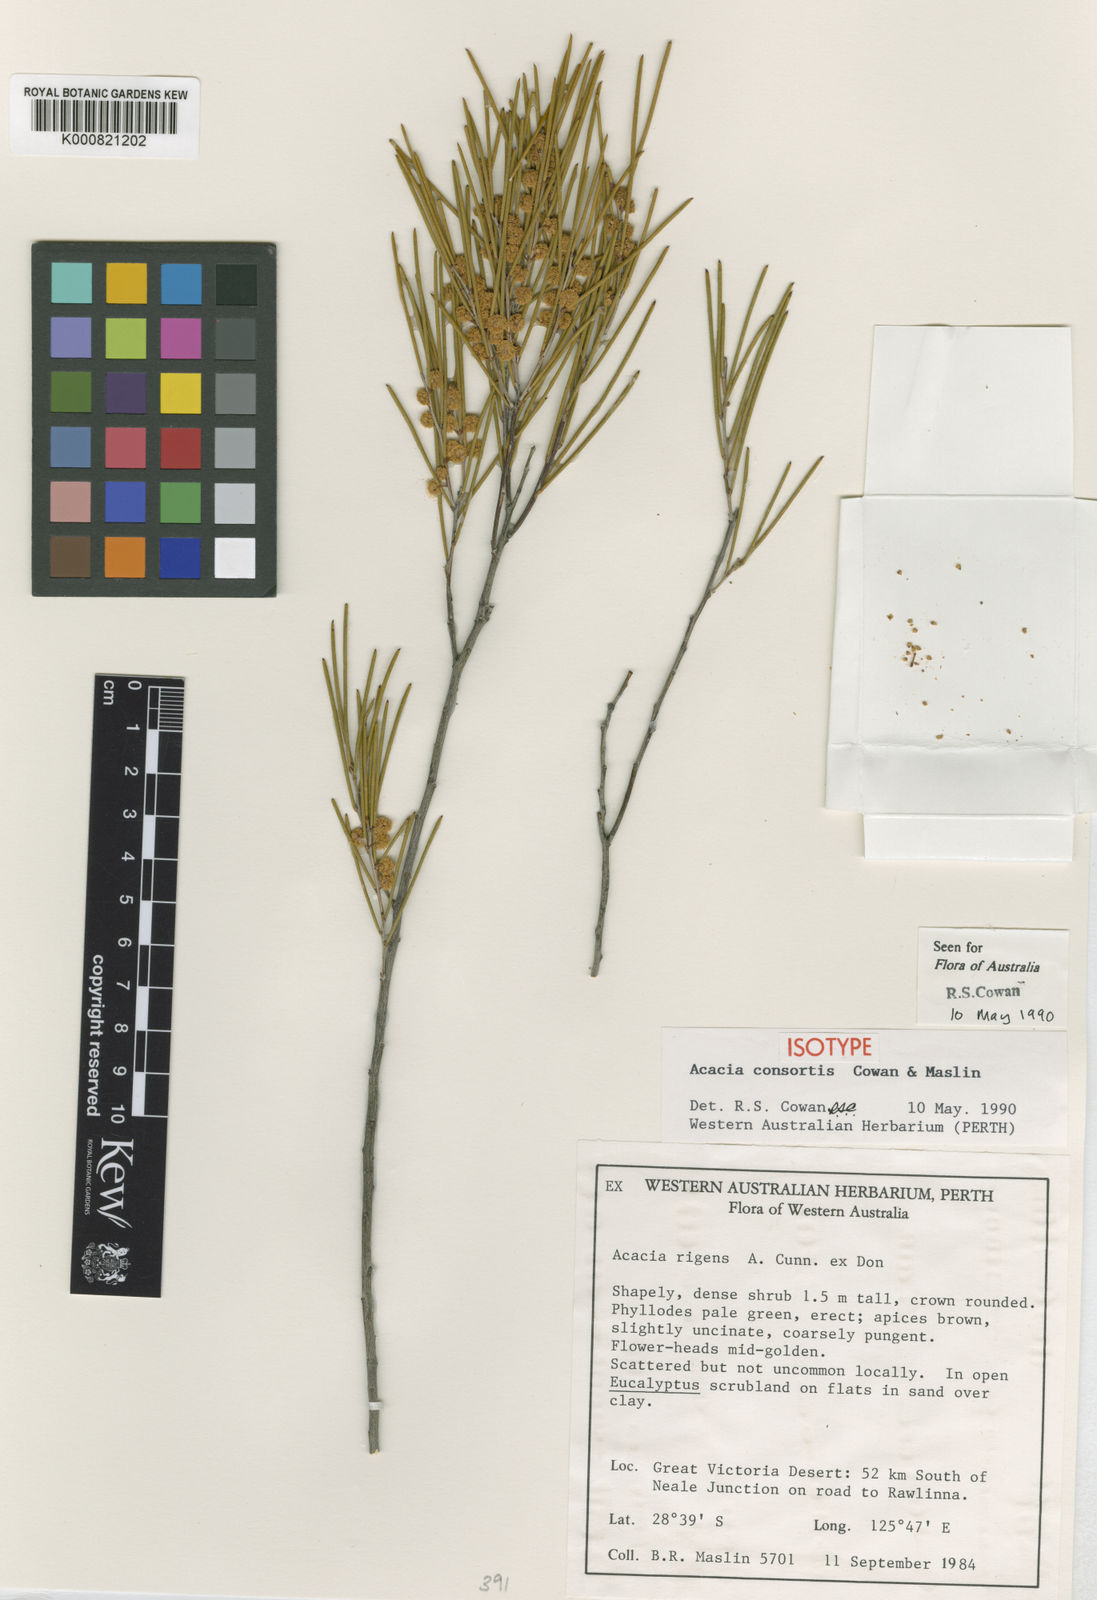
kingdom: Plantae
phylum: Tracheophyta
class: Magnoliopsida
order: Fabales
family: Fabaceae
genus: Acacia
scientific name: Acacia
